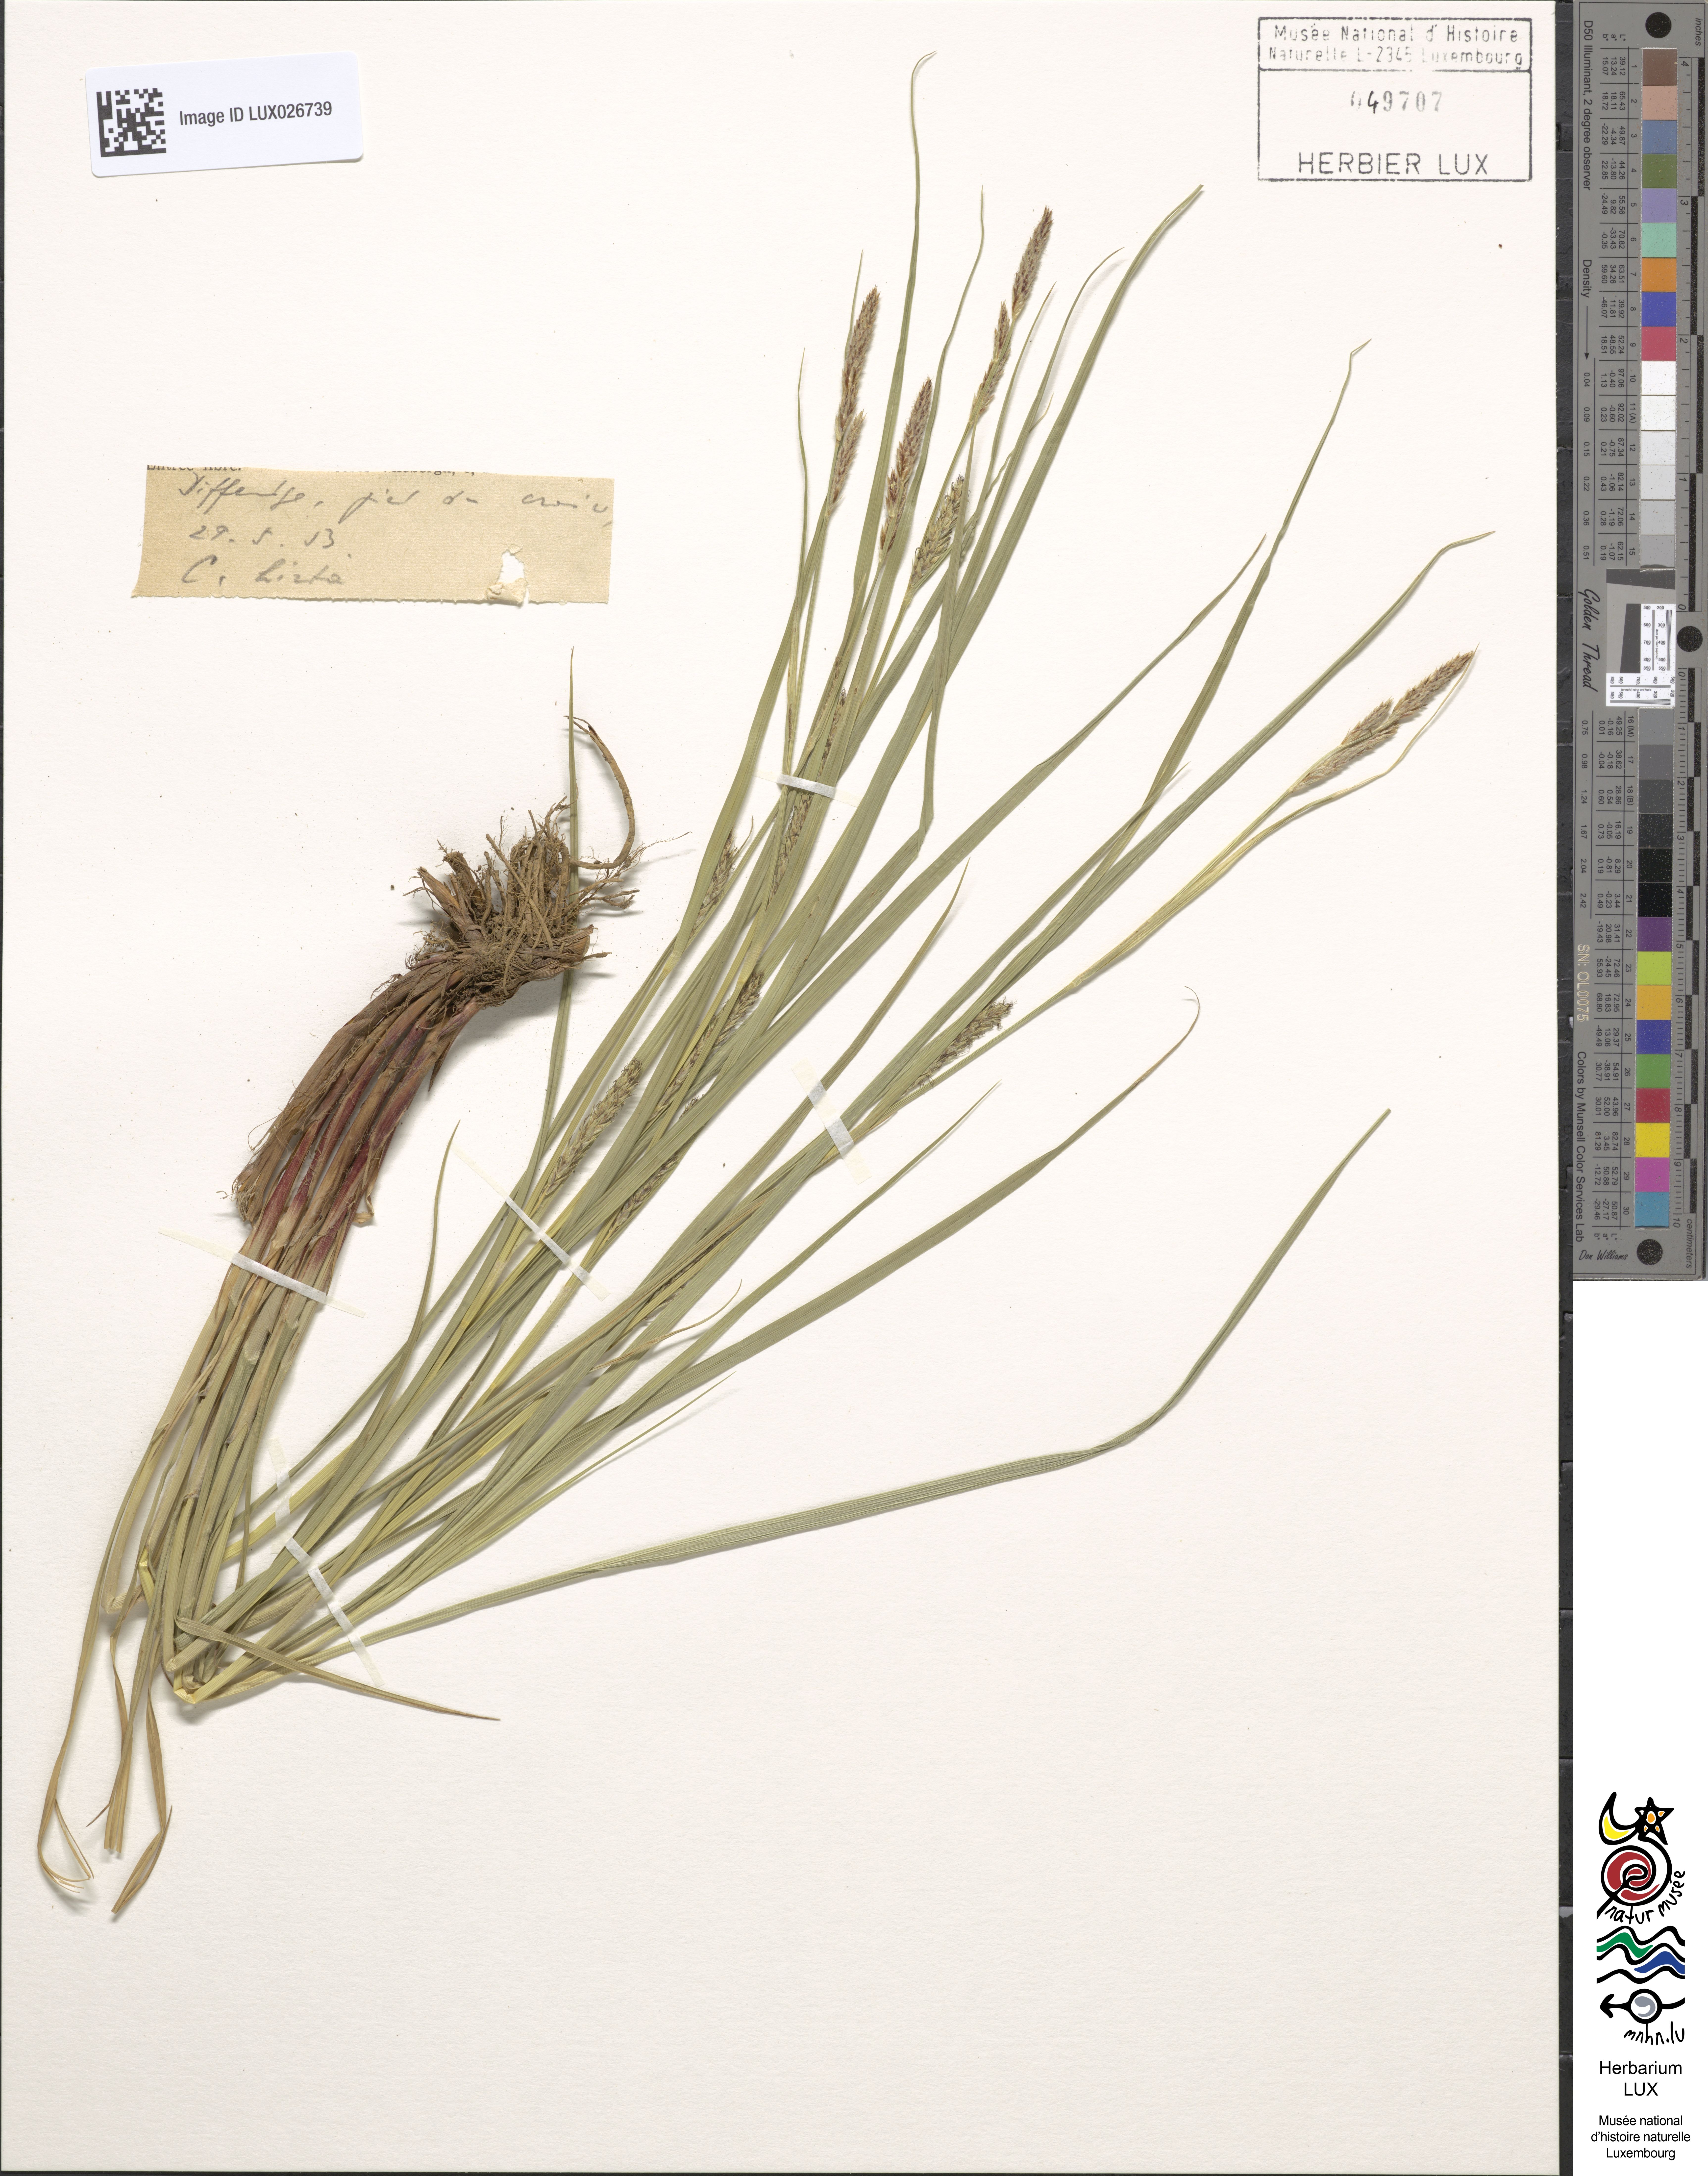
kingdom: Plantae
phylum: Tracheophyta
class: Liliopsida
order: Poales
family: Cyperaceae
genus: Carex
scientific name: Carex hirta
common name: Hairy sedge
